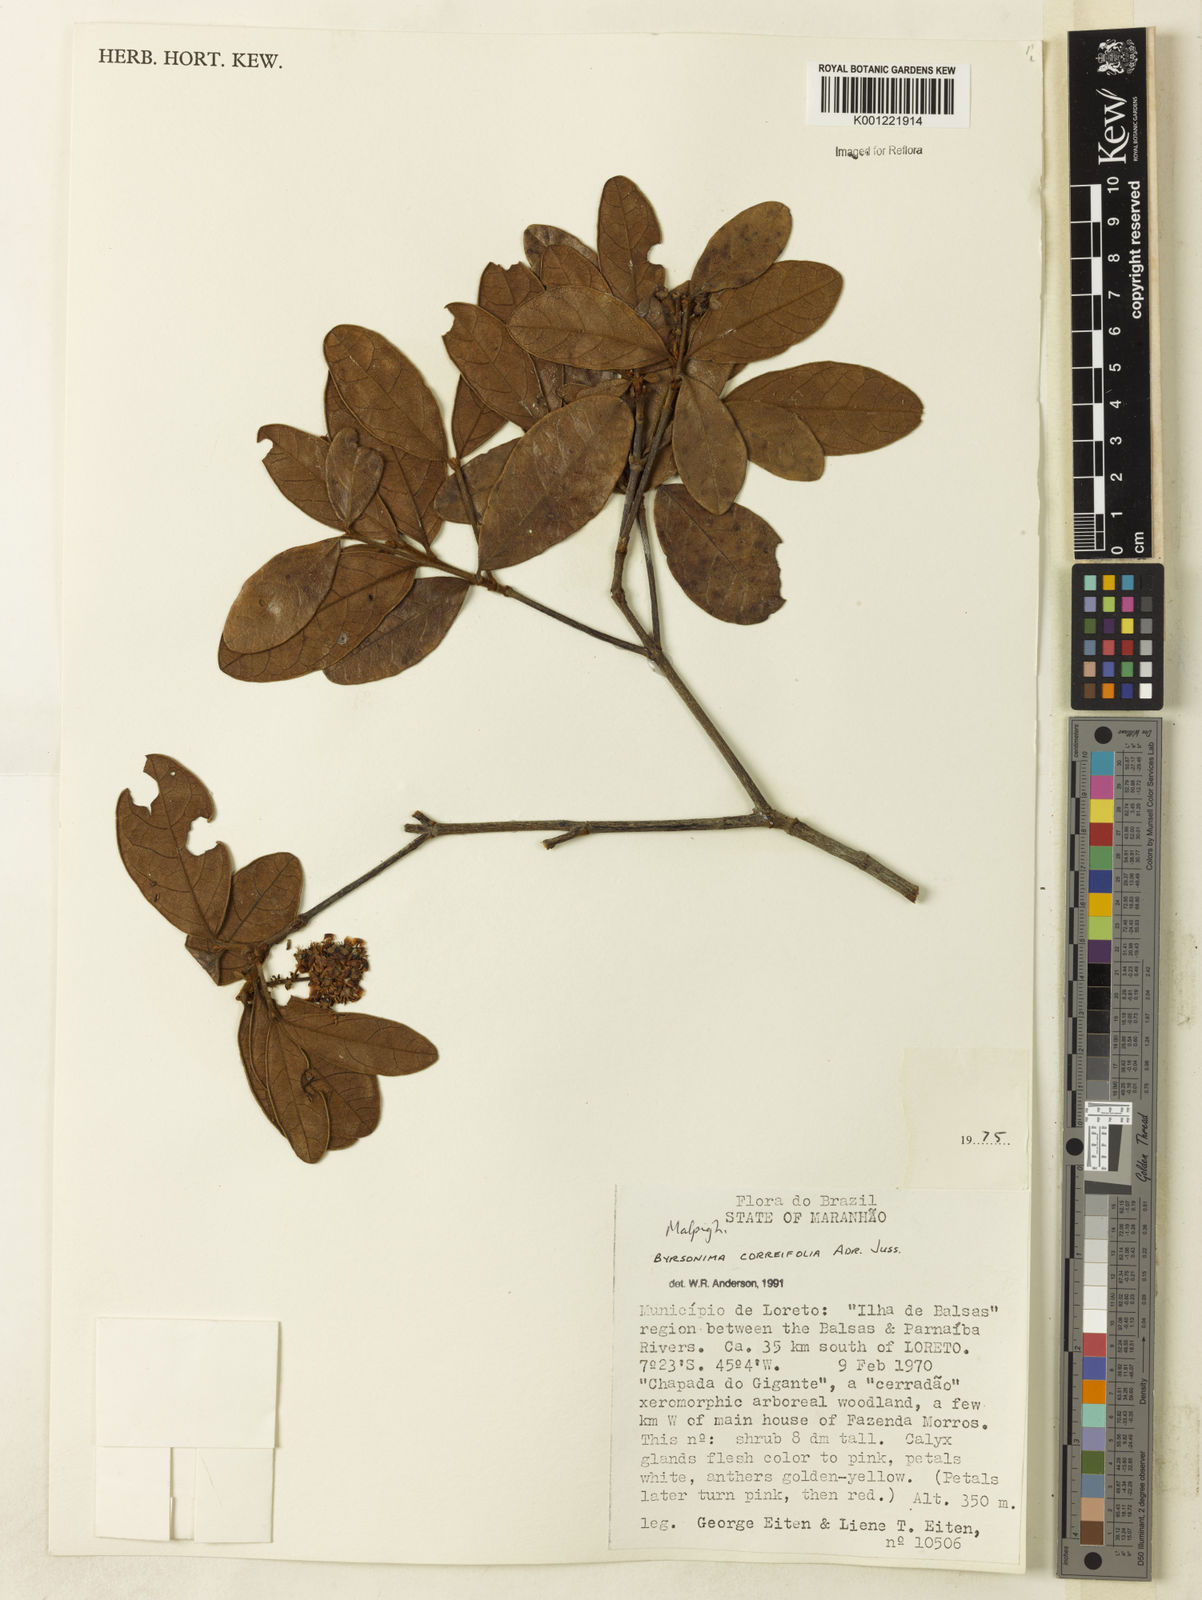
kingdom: Plantae
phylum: Tracheophyta
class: Magnoliopsida
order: Malpighiales
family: Malpighiaceae
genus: Byrsonima
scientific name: Byrsonima correifolia
